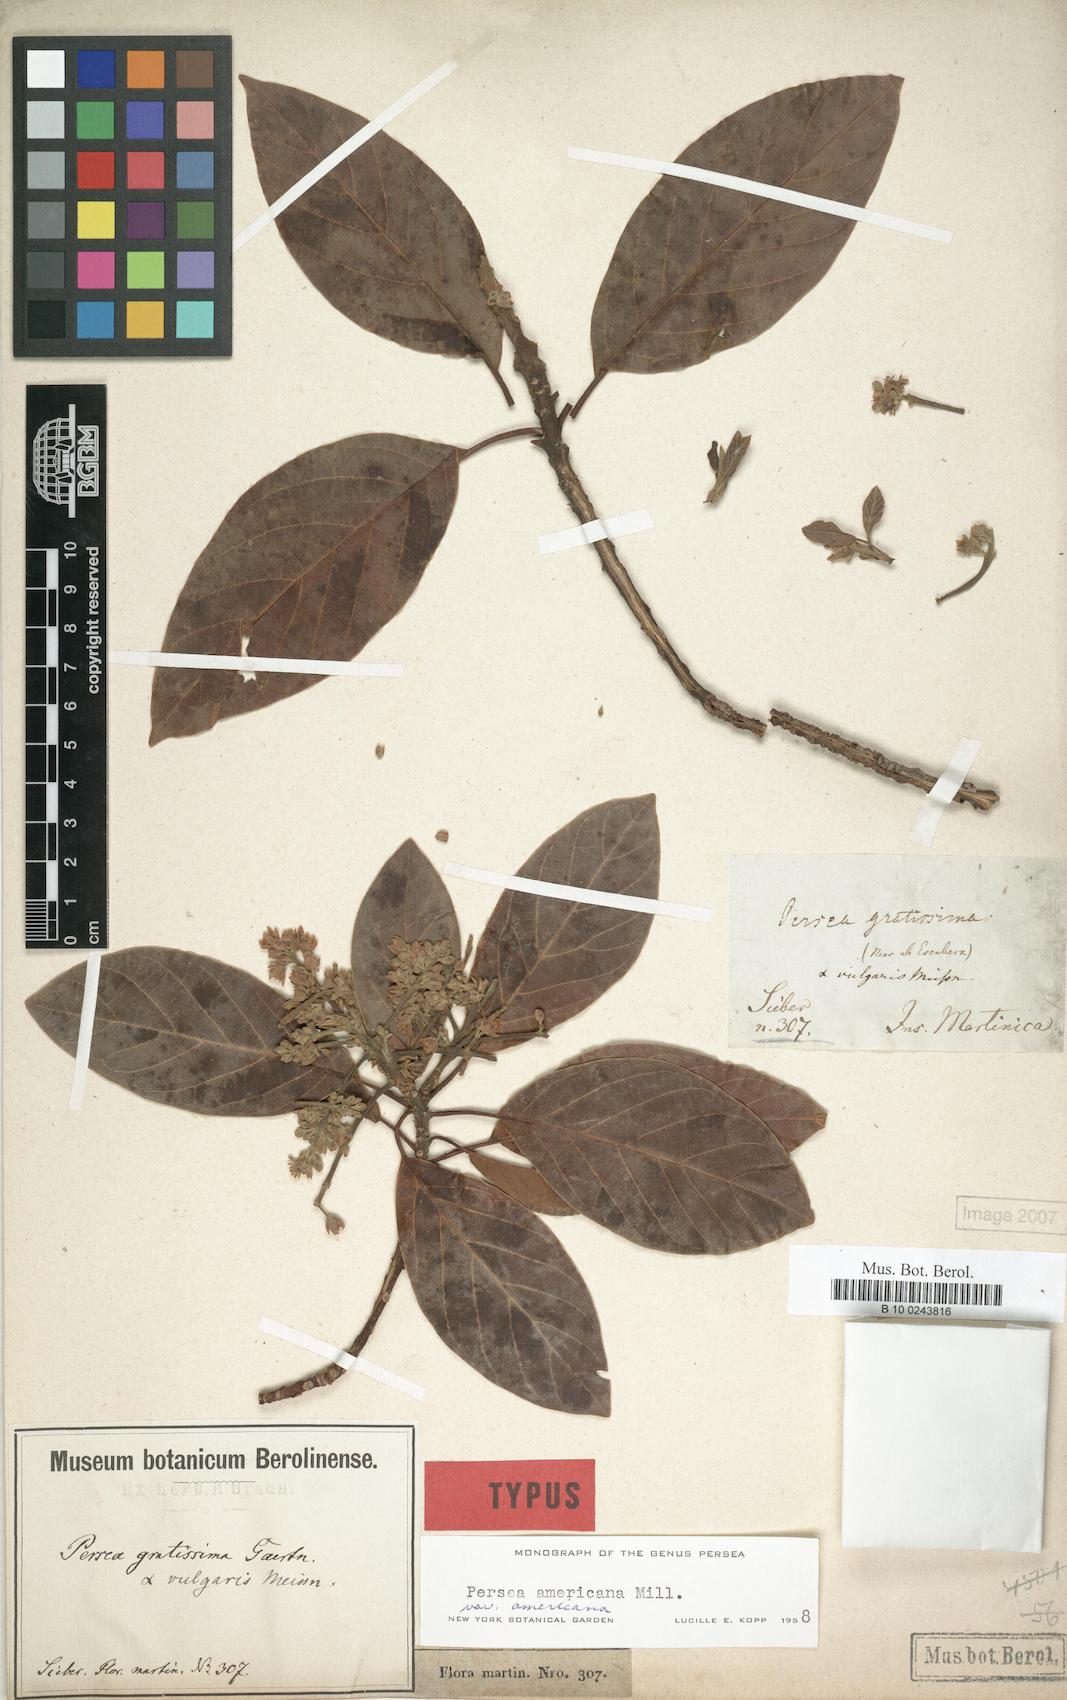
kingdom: Plantae
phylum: Tracheophyta
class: Magnoliopsida
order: Laurales
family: Lauraceae
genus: Persea
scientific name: Persea americana
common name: Avocado
